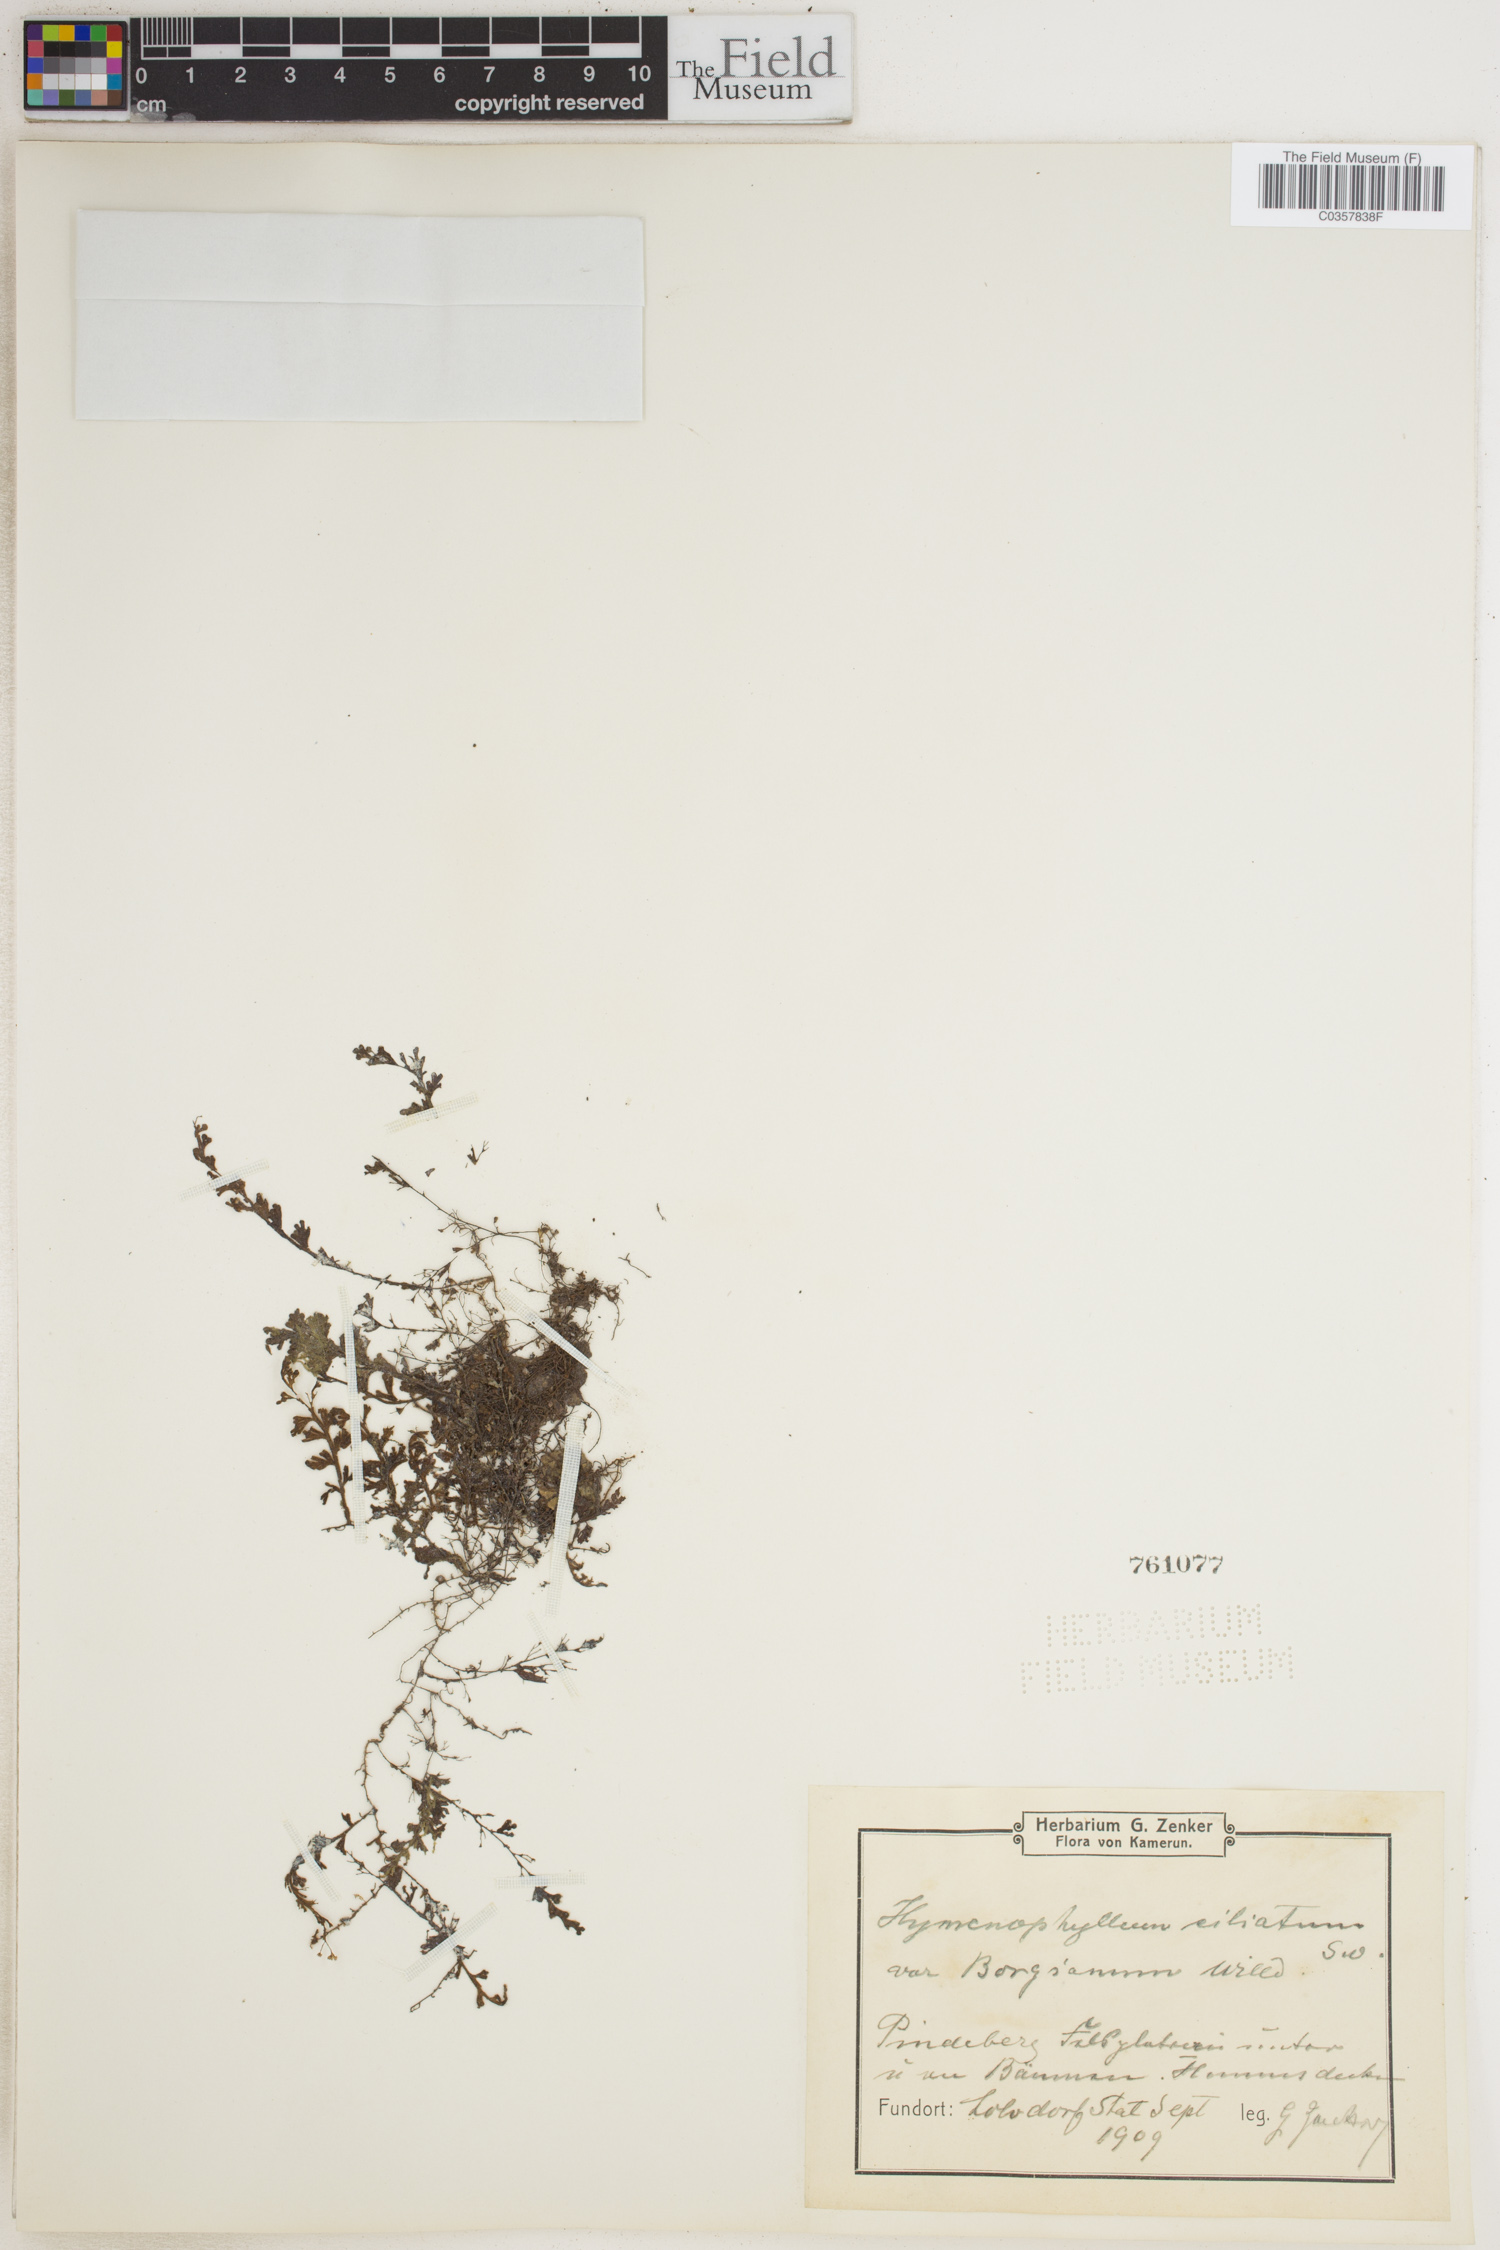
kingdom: Plantae
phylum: Tracheophyta
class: Polypodiopsida
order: Hymenophyllales
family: Hymenophyllaceae
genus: Hymenophyllum
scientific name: Hymenophyllum hirsutum
